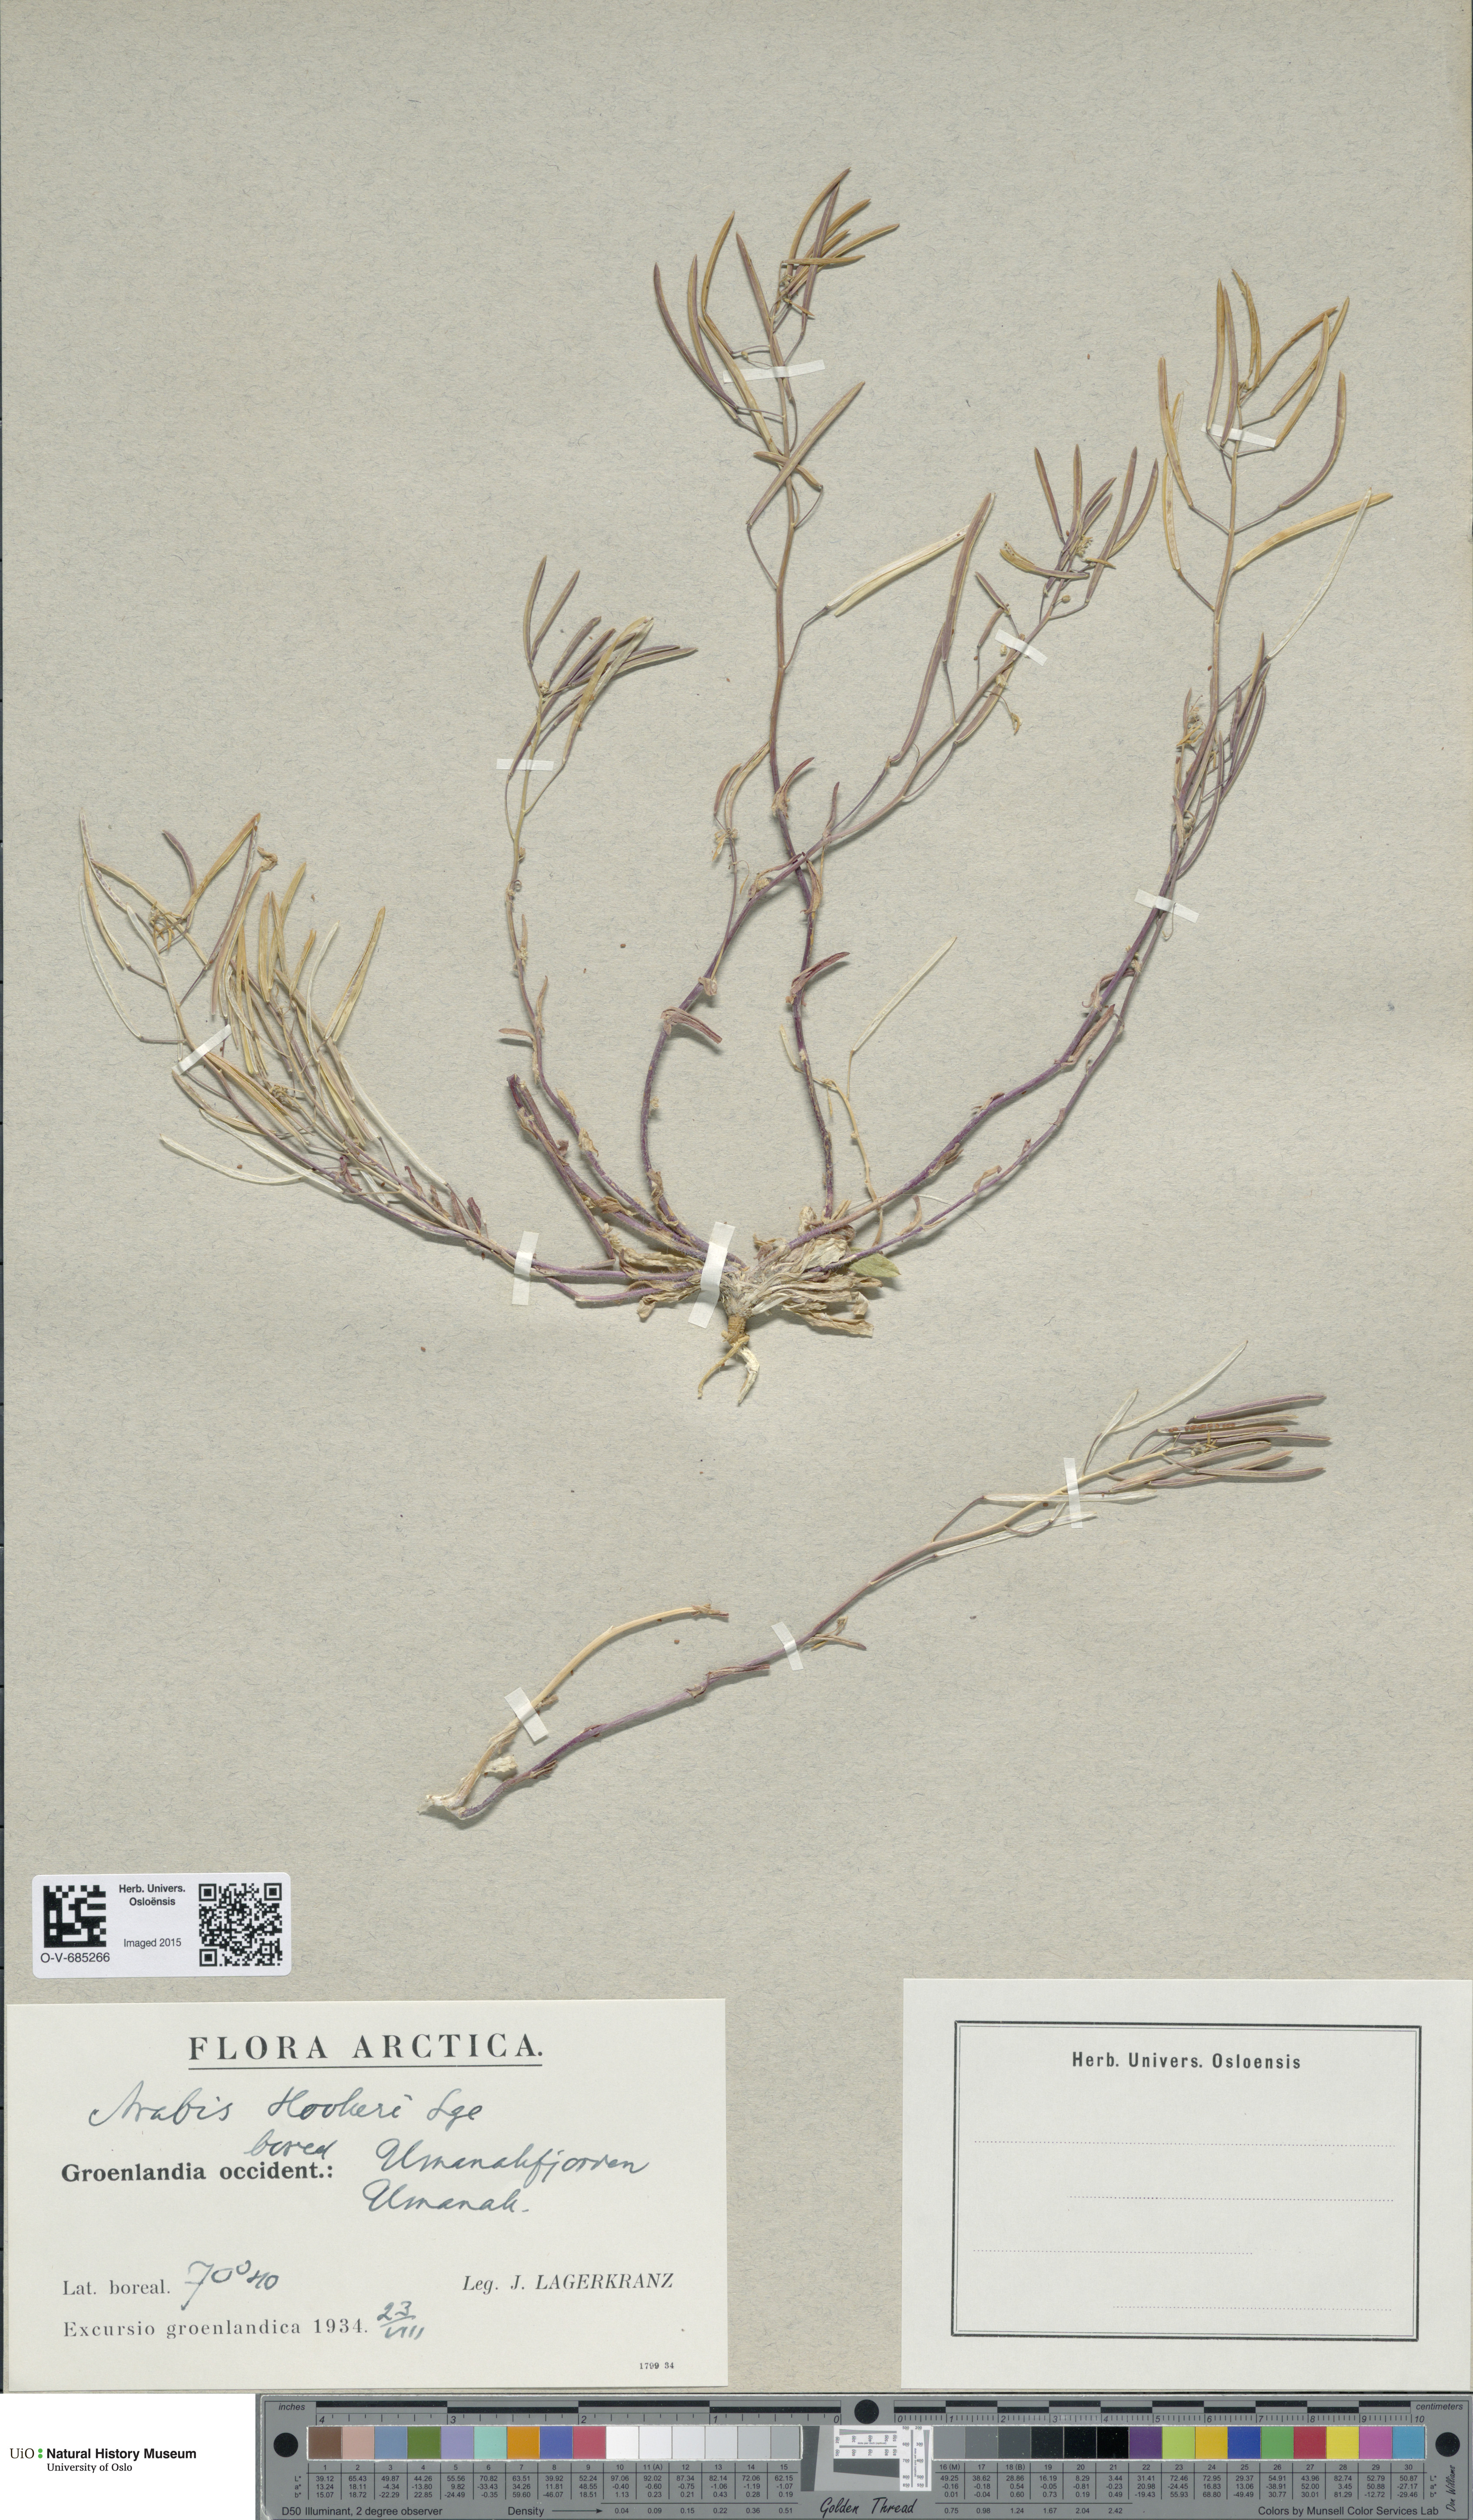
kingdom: Plantae
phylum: Tracheophyta
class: Magnoliopsida
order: Brassicales
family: Brassicaceae
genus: Crucihimalaya
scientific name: Crucihimalaya bursifolia
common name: Soft fissurewort
